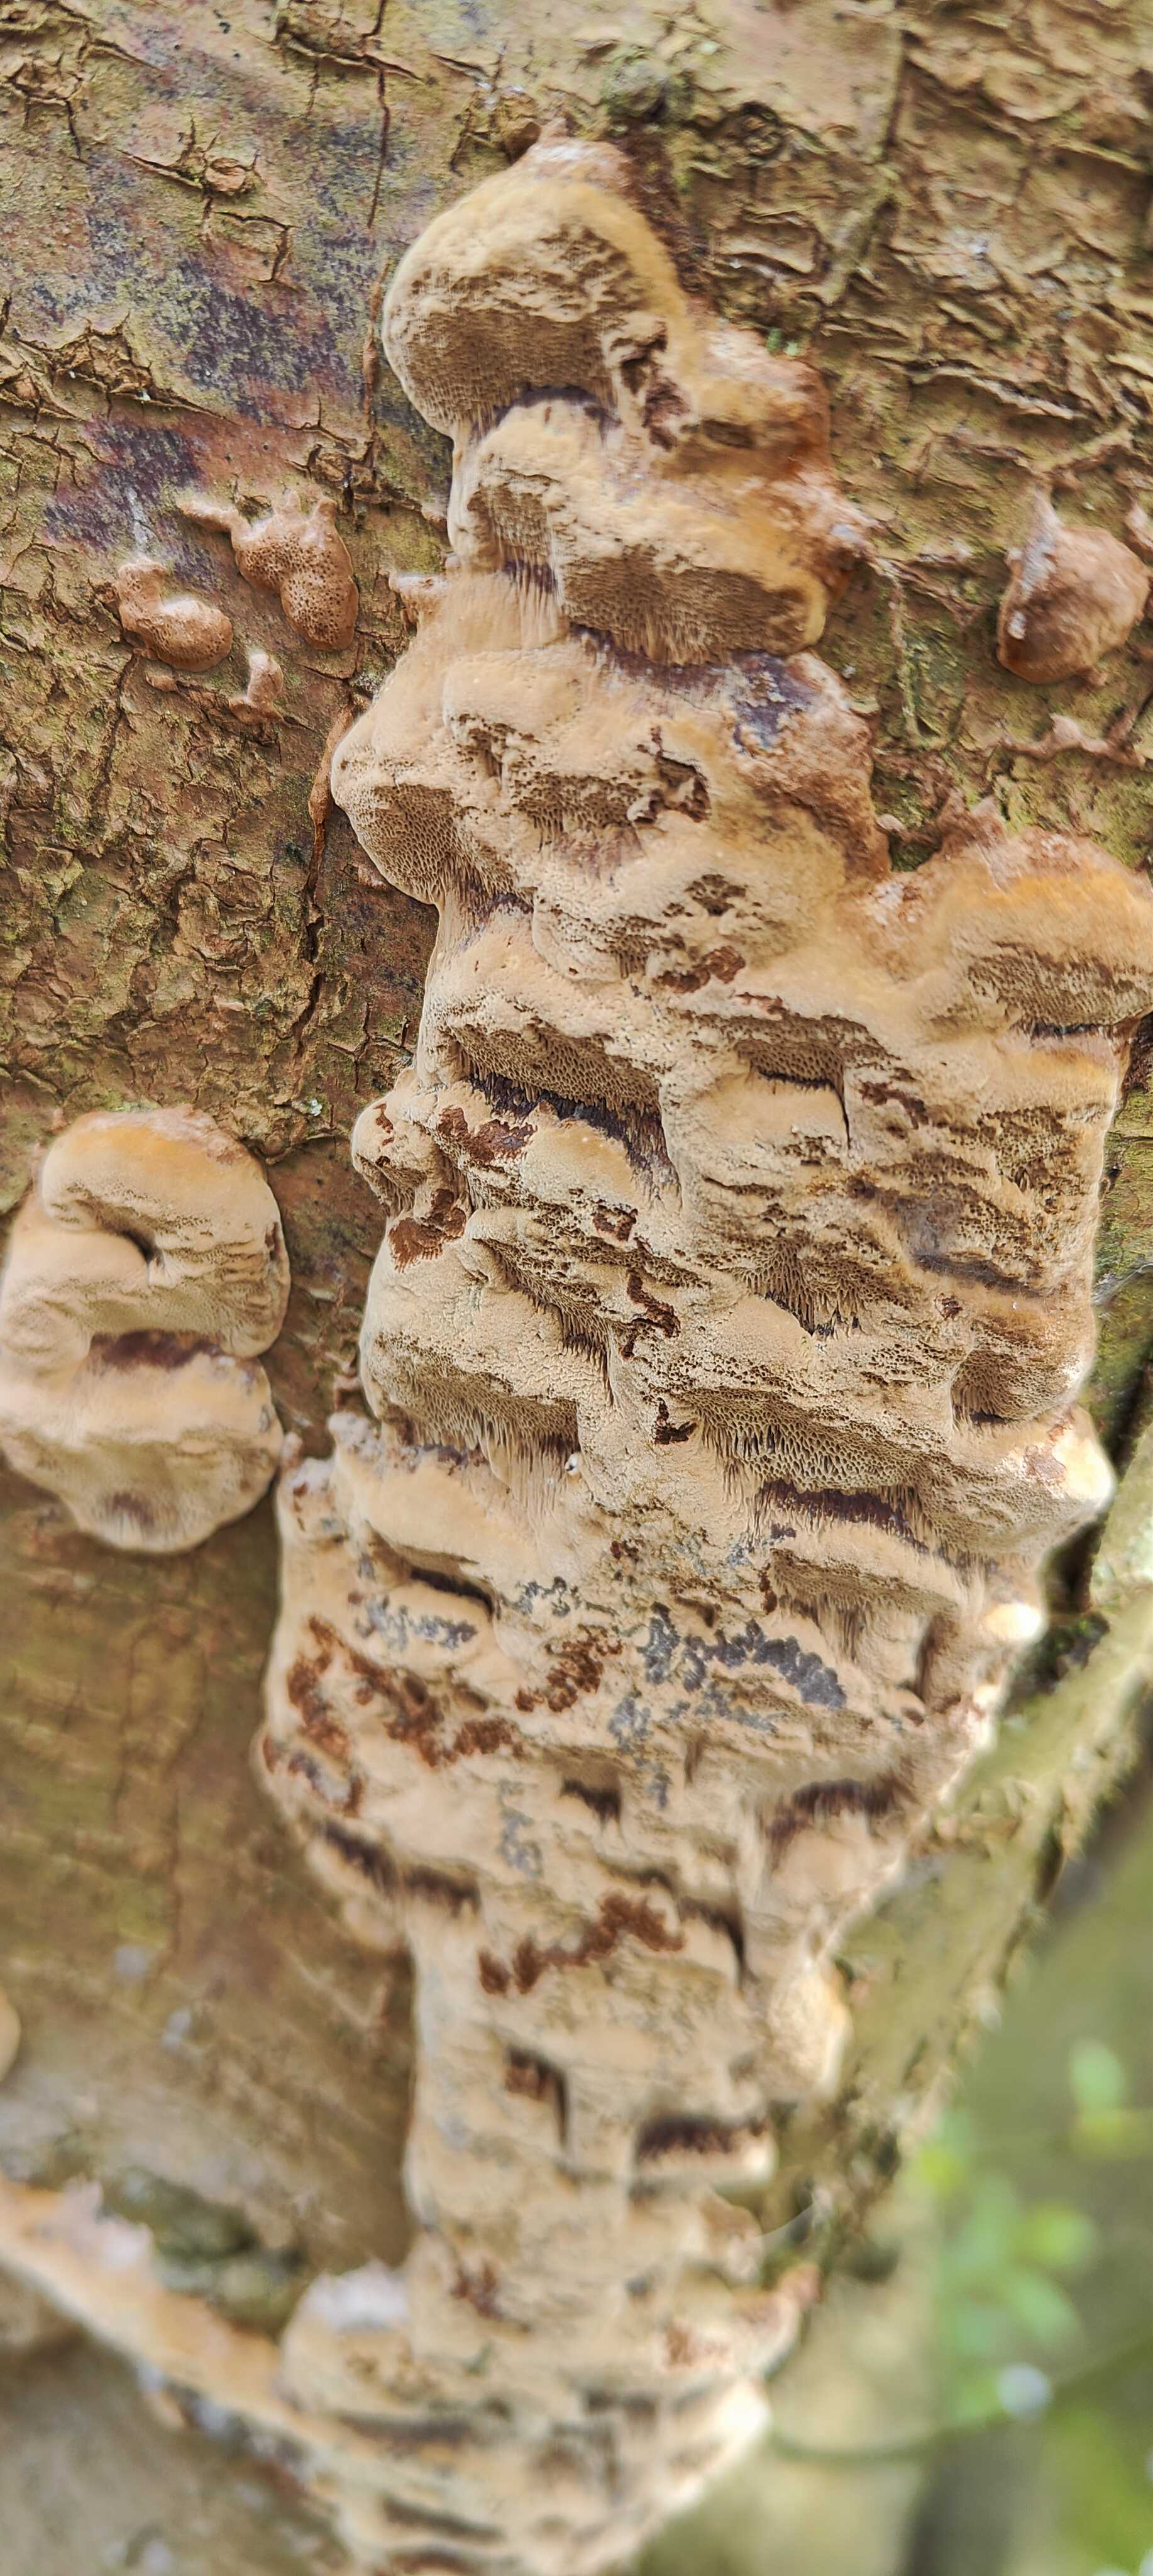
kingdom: Fungi
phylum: Basidiomycota
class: Agaricomycetes
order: Hymenochaetales
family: Hymenochaetaceae
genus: Phellinus
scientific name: Phellinus pomaceus
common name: blomme-ildporesvamp
